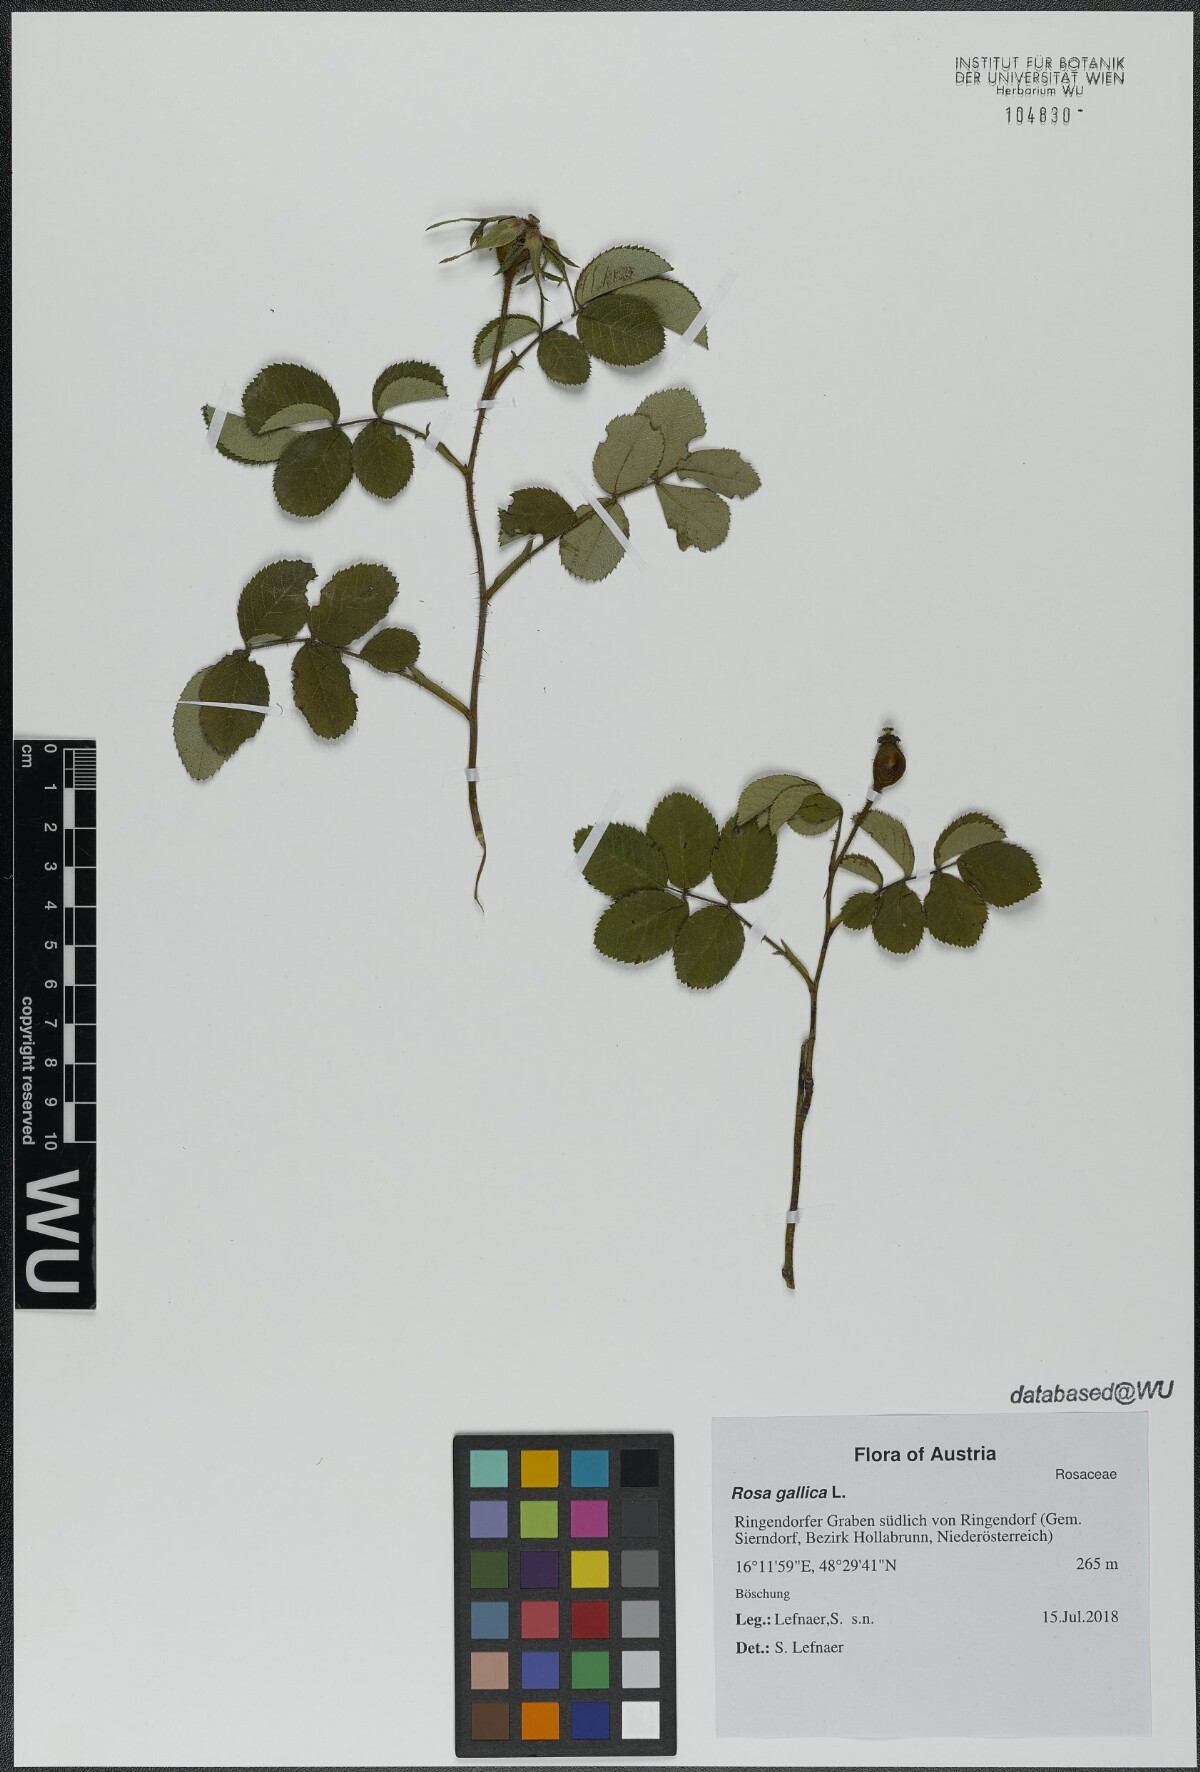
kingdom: Plantae
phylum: Tracheophyta
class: Magnoliopsida
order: Rosales
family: Rosaceae
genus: Rosa
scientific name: Rosa gallica
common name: French rose
